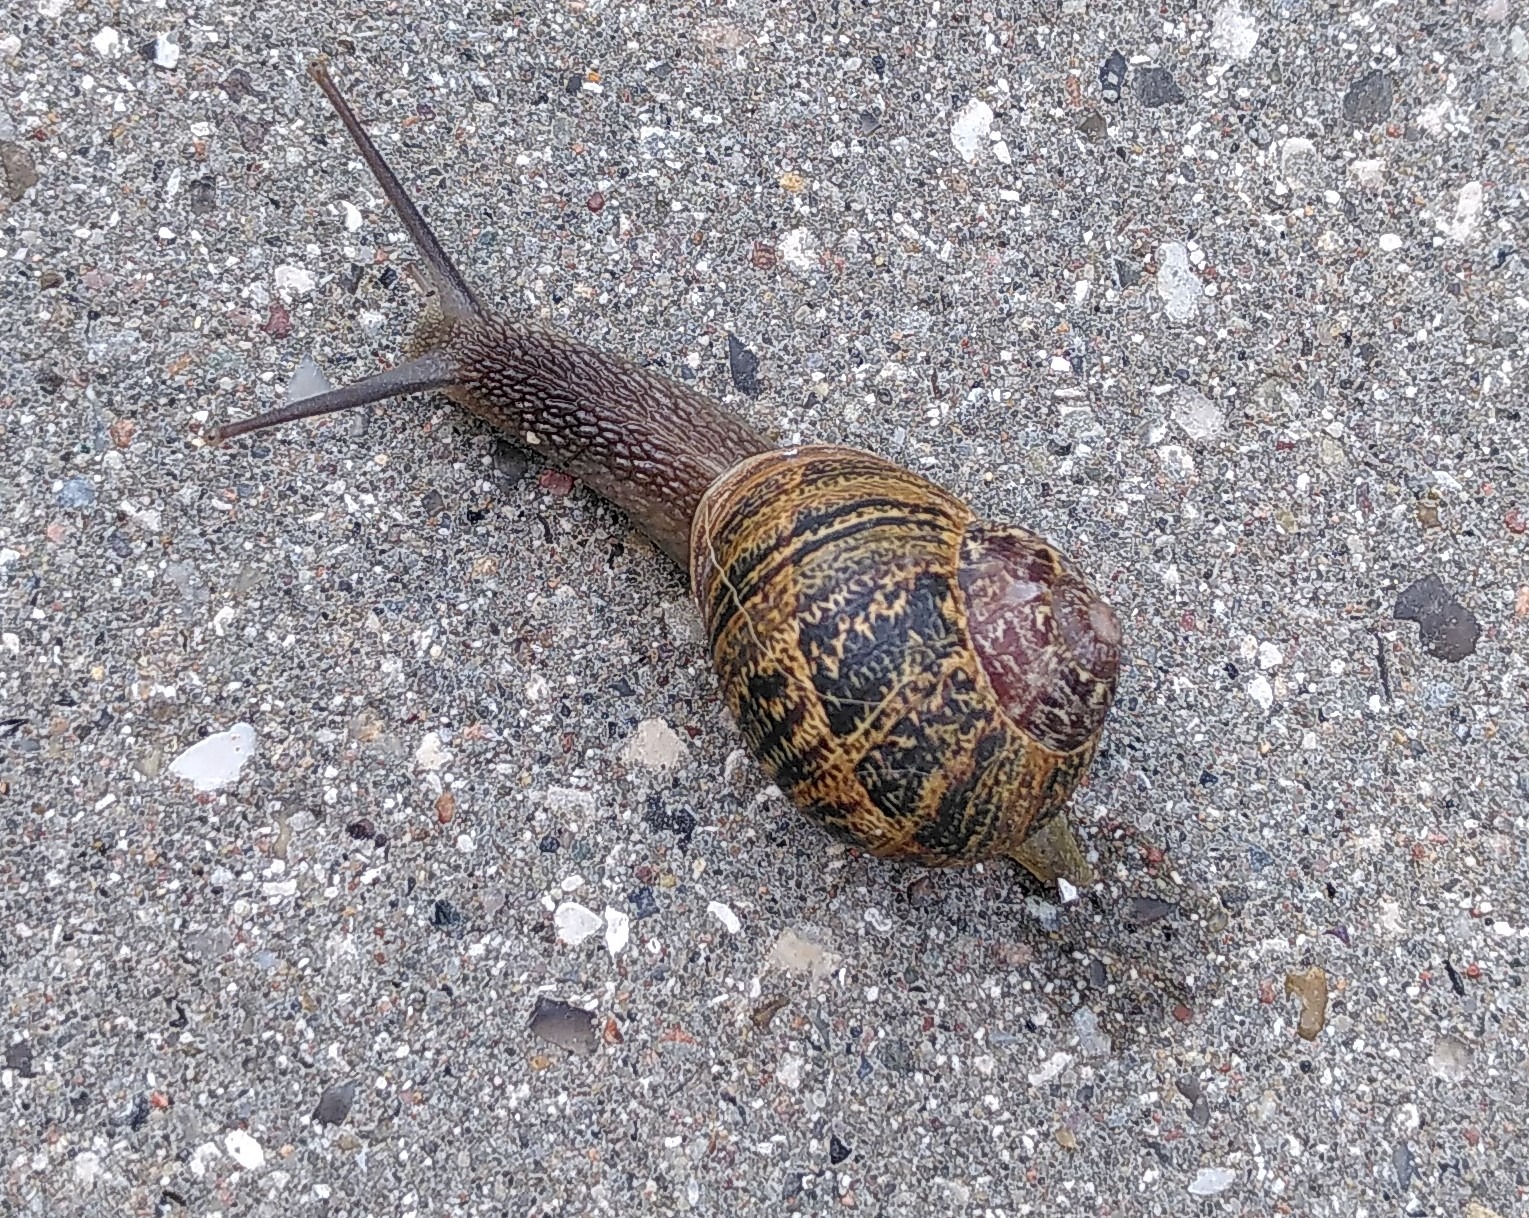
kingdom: Animalia
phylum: Mollusca
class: Gastropoda
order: Stylommatophora
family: Helicidae
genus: Cornu
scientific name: Cornu aspersum
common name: Plettet voldsnegl
